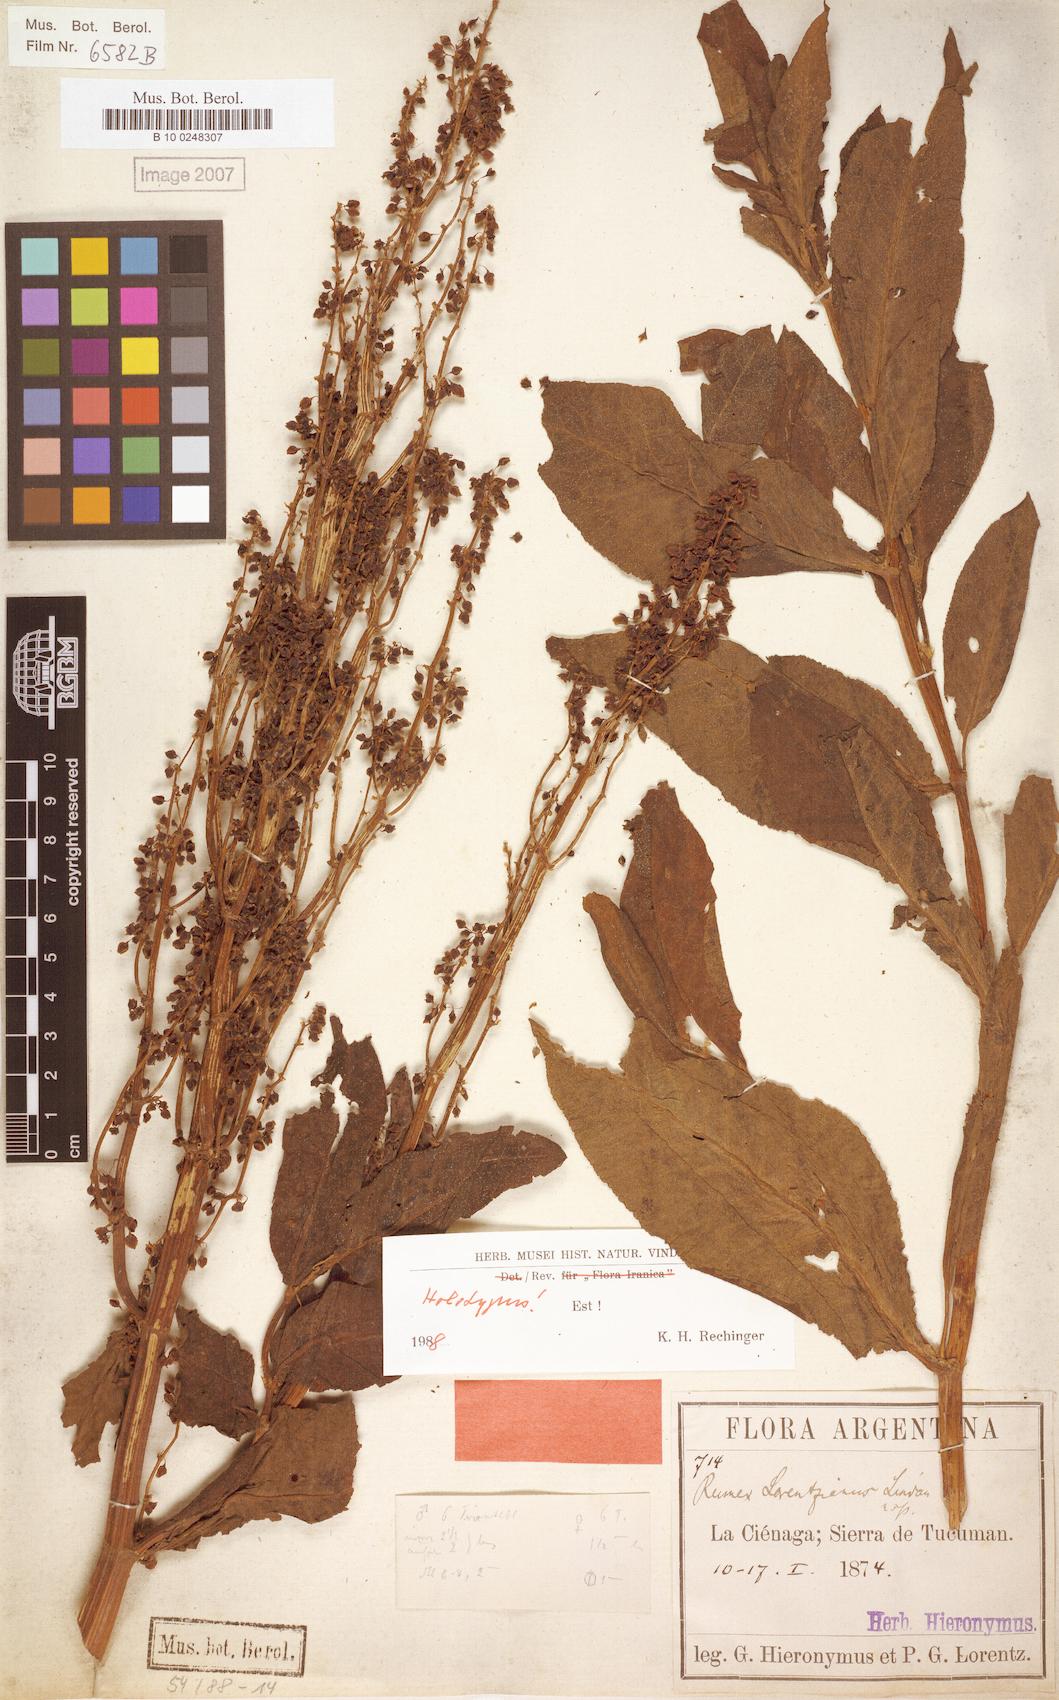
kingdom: Plantae
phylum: Tracheophyta
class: Magnoliopsida
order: Caryophyllales
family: Polygonaceae
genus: Rumex
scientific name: Rumex lorentzianus
